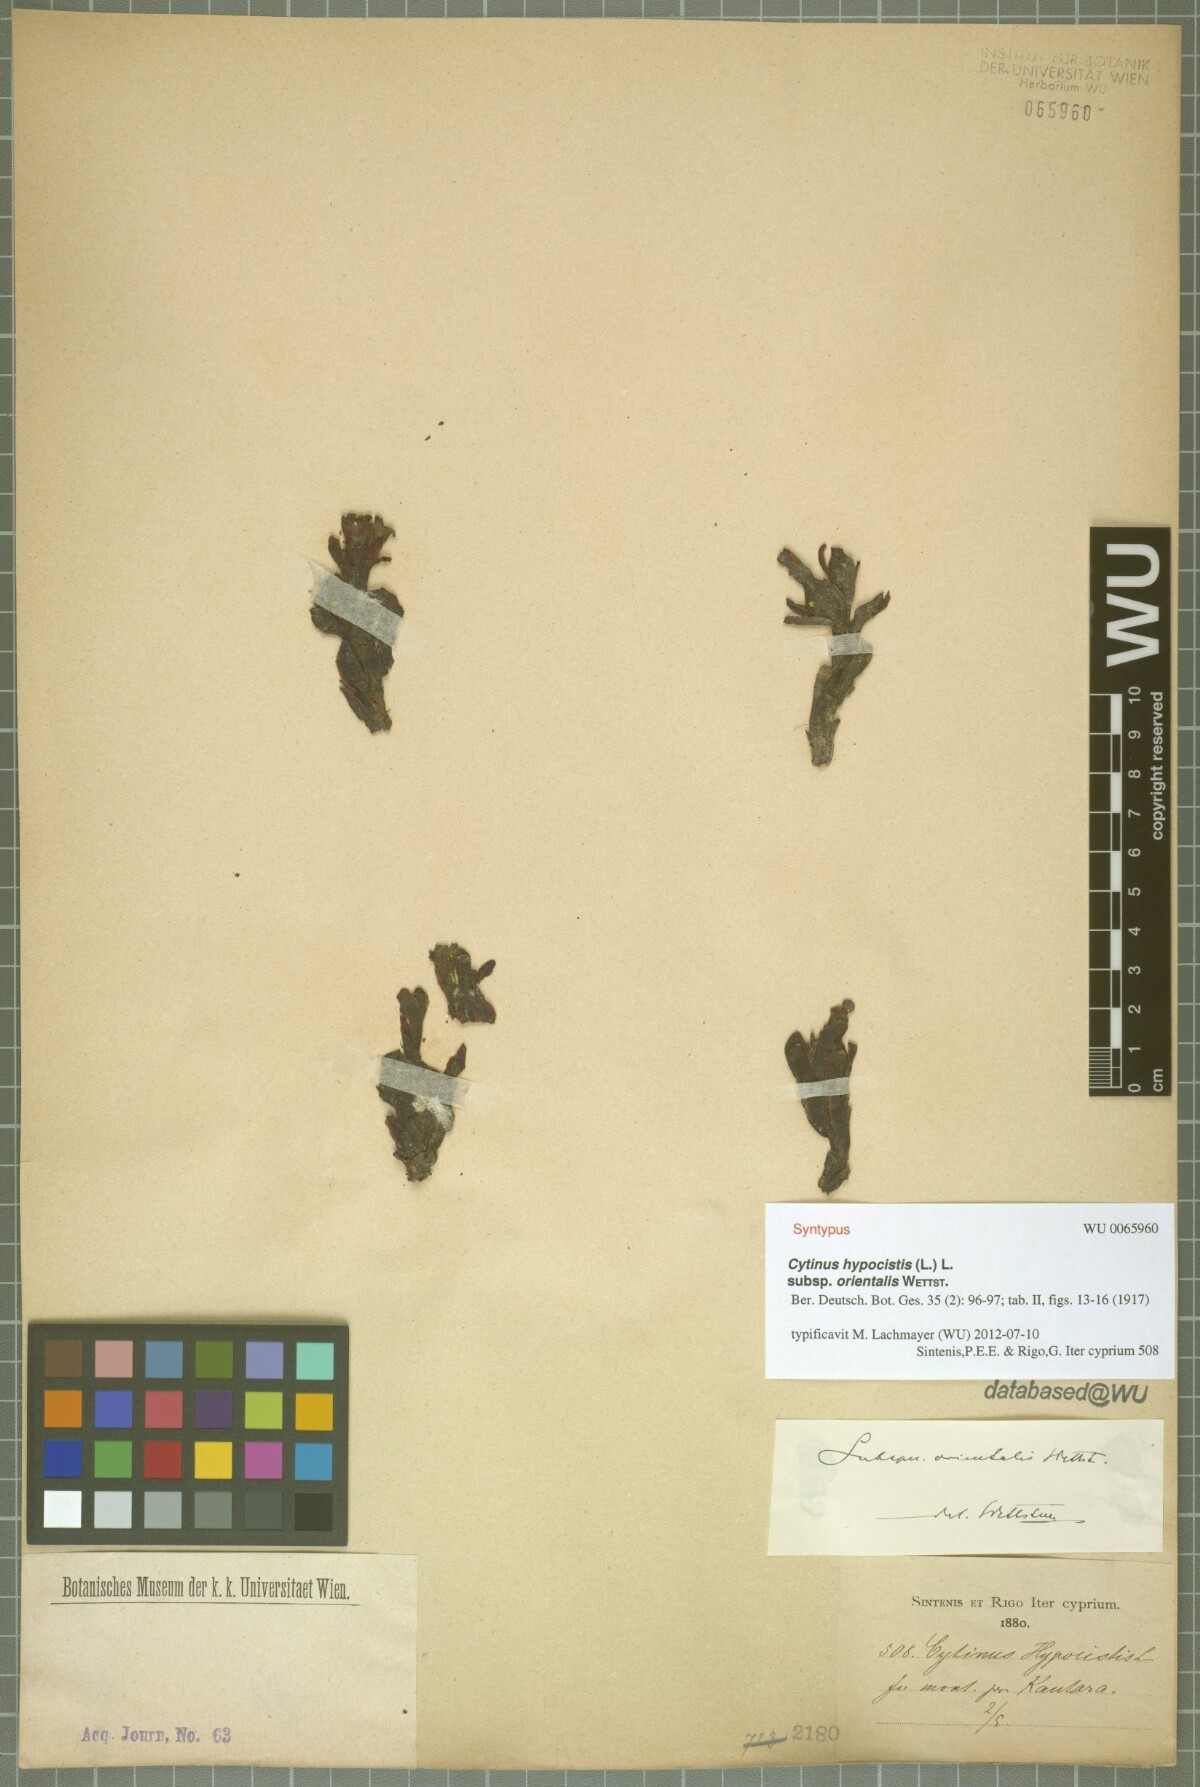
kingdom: Plantae
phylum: Tracheophyta
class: Magnoliopsida
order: Malvales
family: Cytinaceae
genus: Cytinus
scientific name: Cytinus ruber
